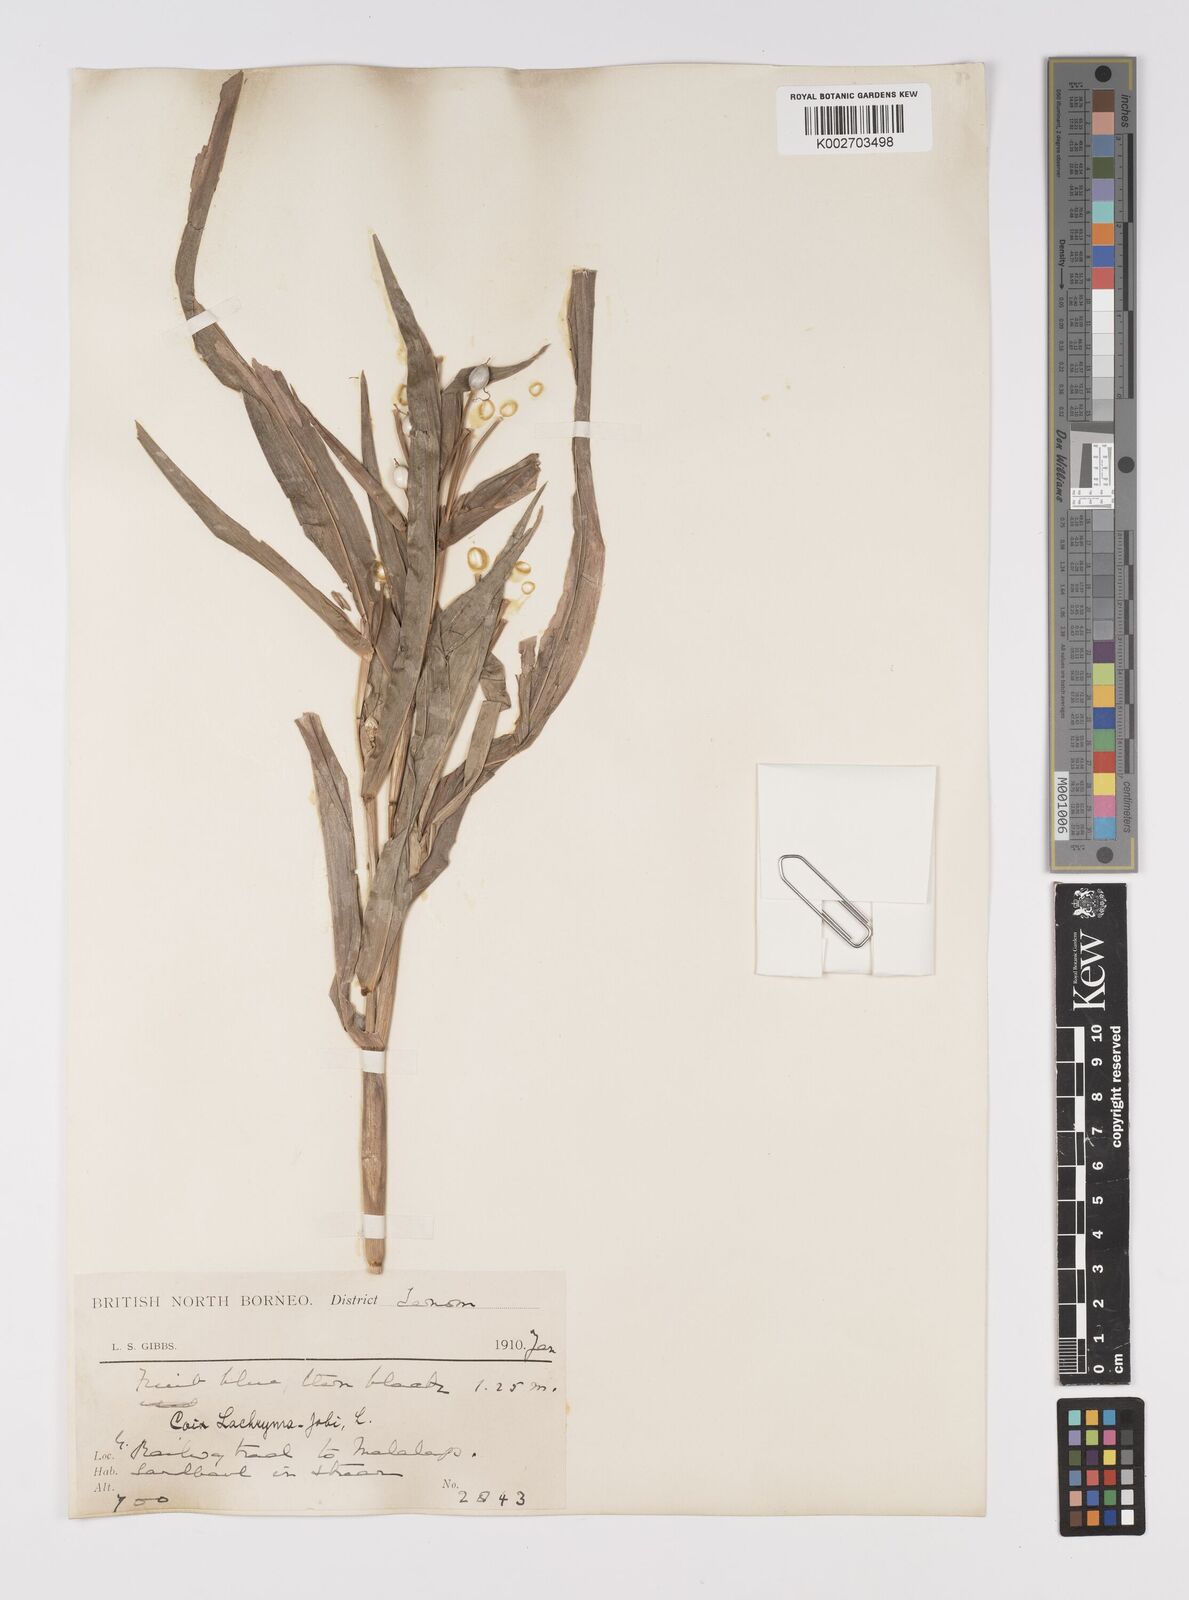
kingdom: Plantae
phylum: Tracheophyta
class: Liliopsida
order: Poales
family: Poaceae
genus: Coix
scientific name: Coix lacryma-jobi
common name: Job's tears
